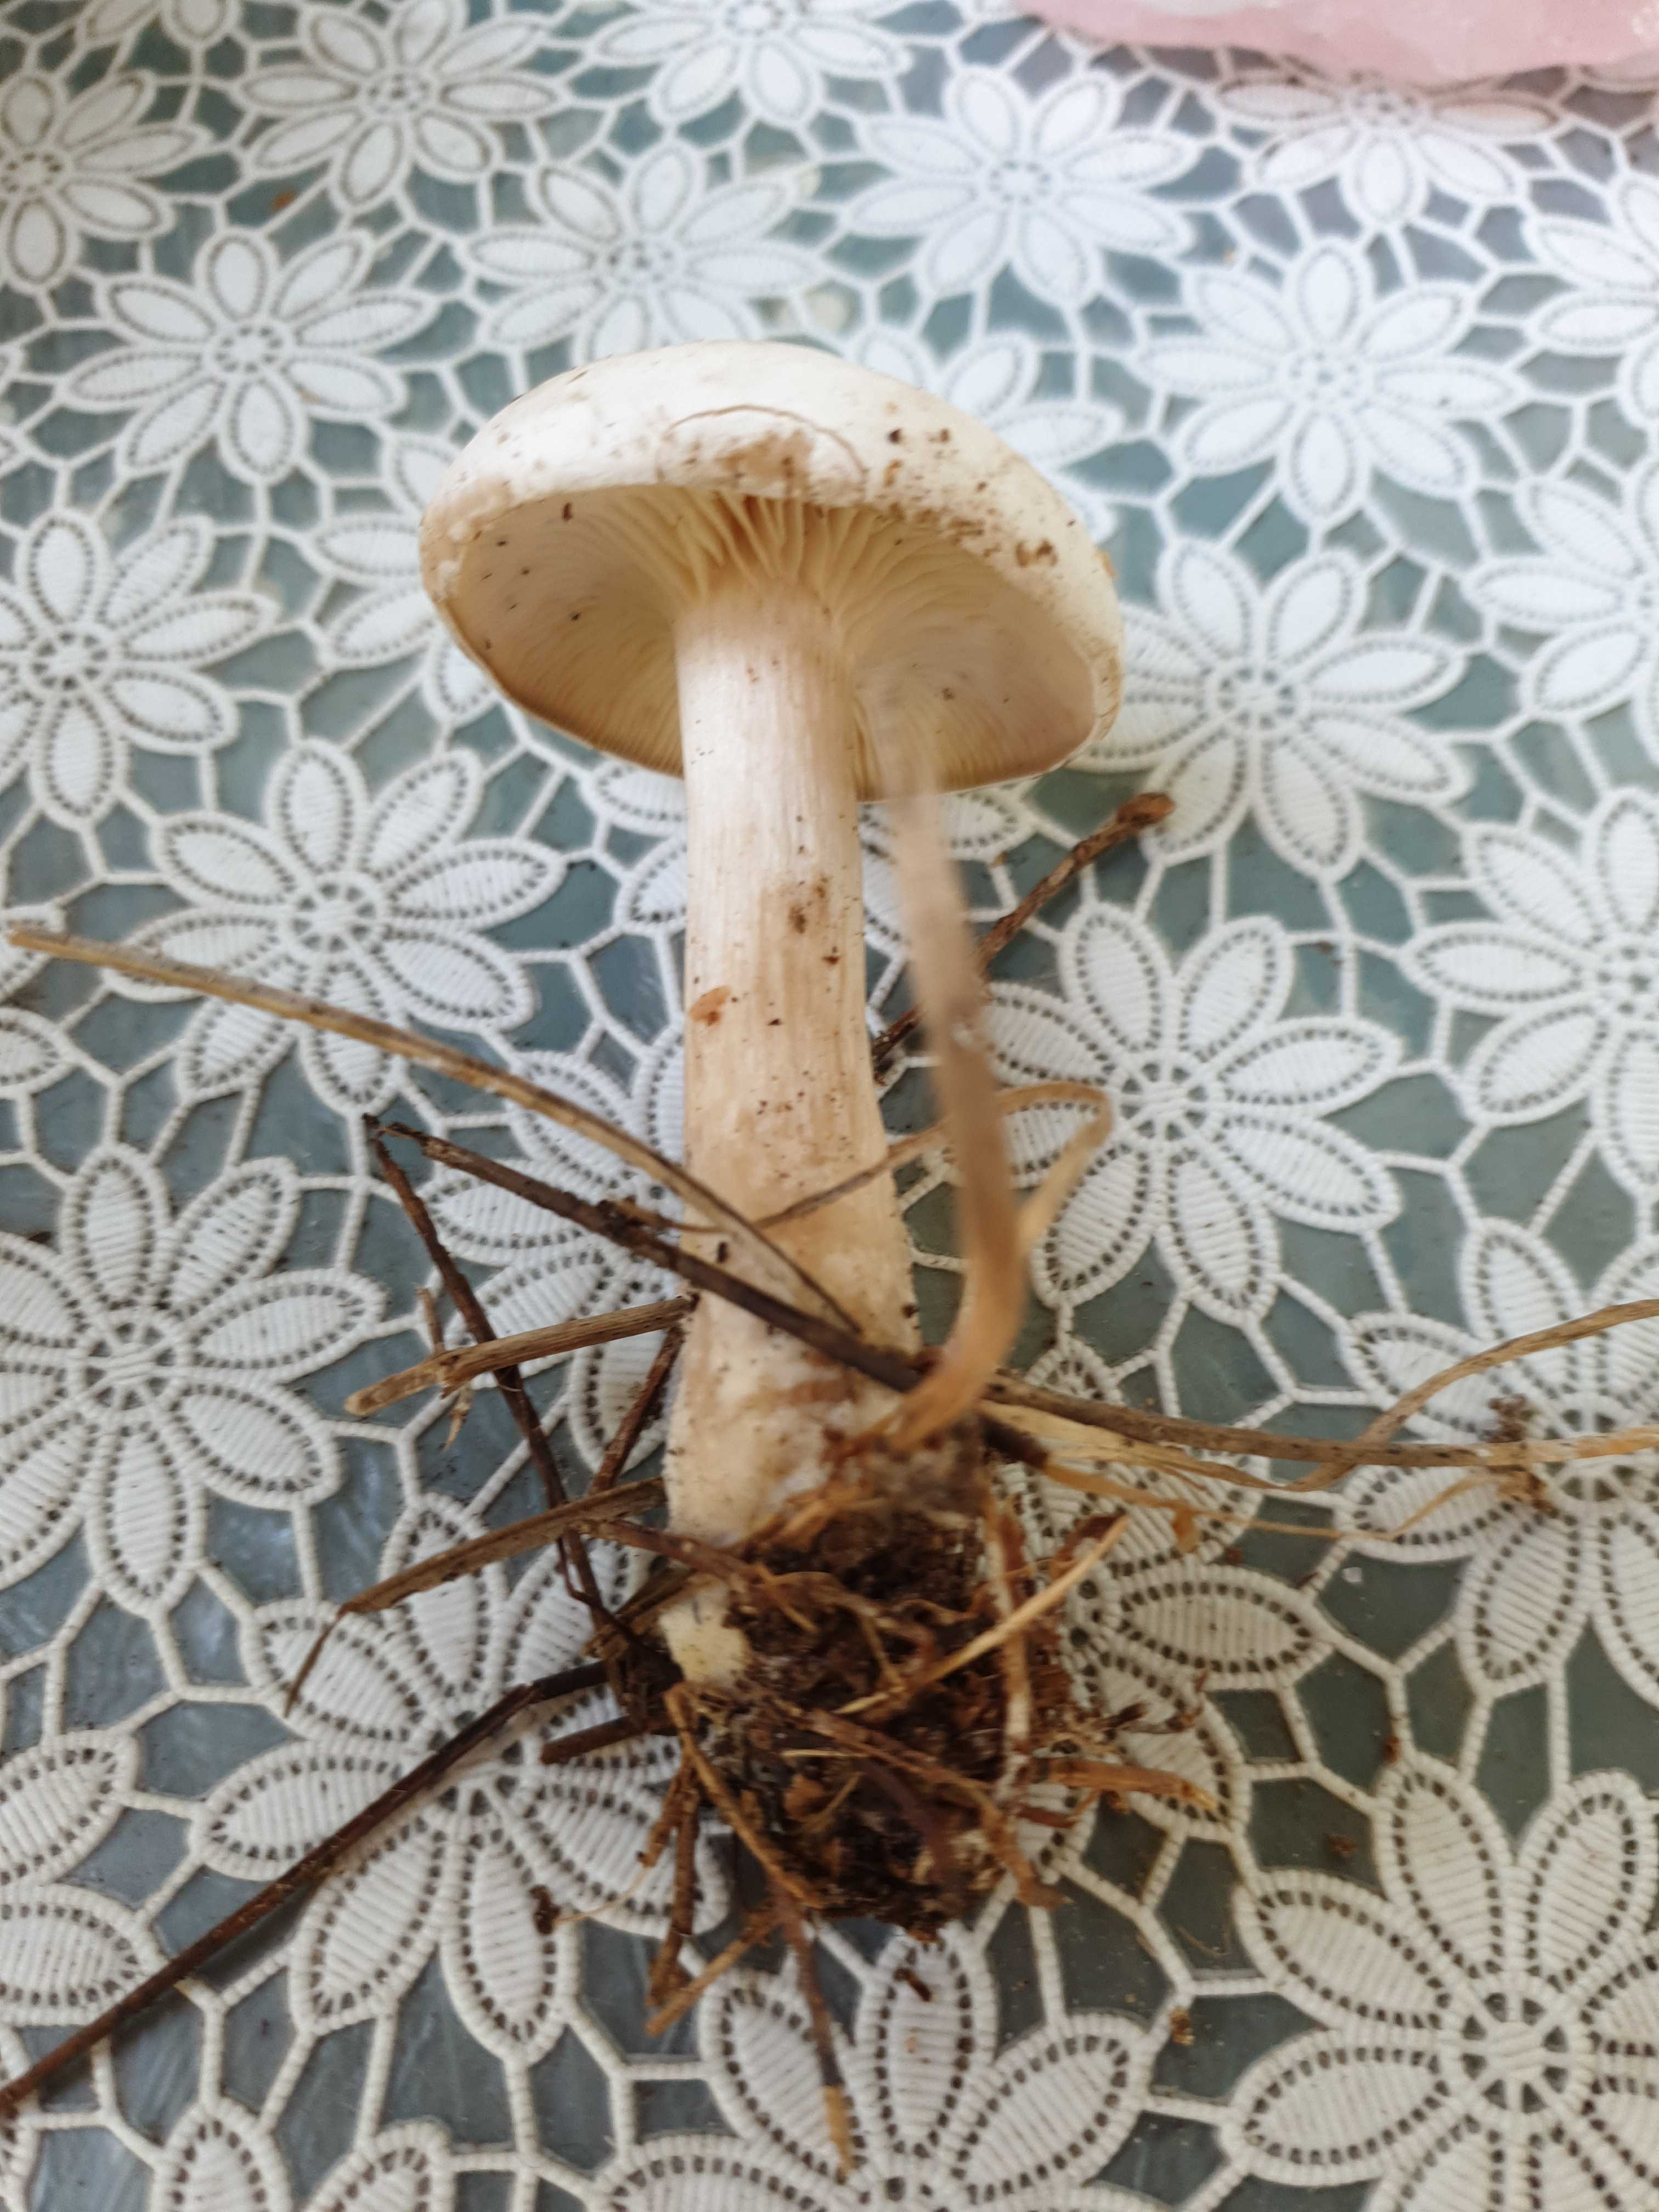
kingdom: Fungi
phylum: Basidiomycota
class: Agaricomycetes
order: Agaricales
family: Tricholomataceae
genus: Clitocybe
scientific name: Clitocybe
